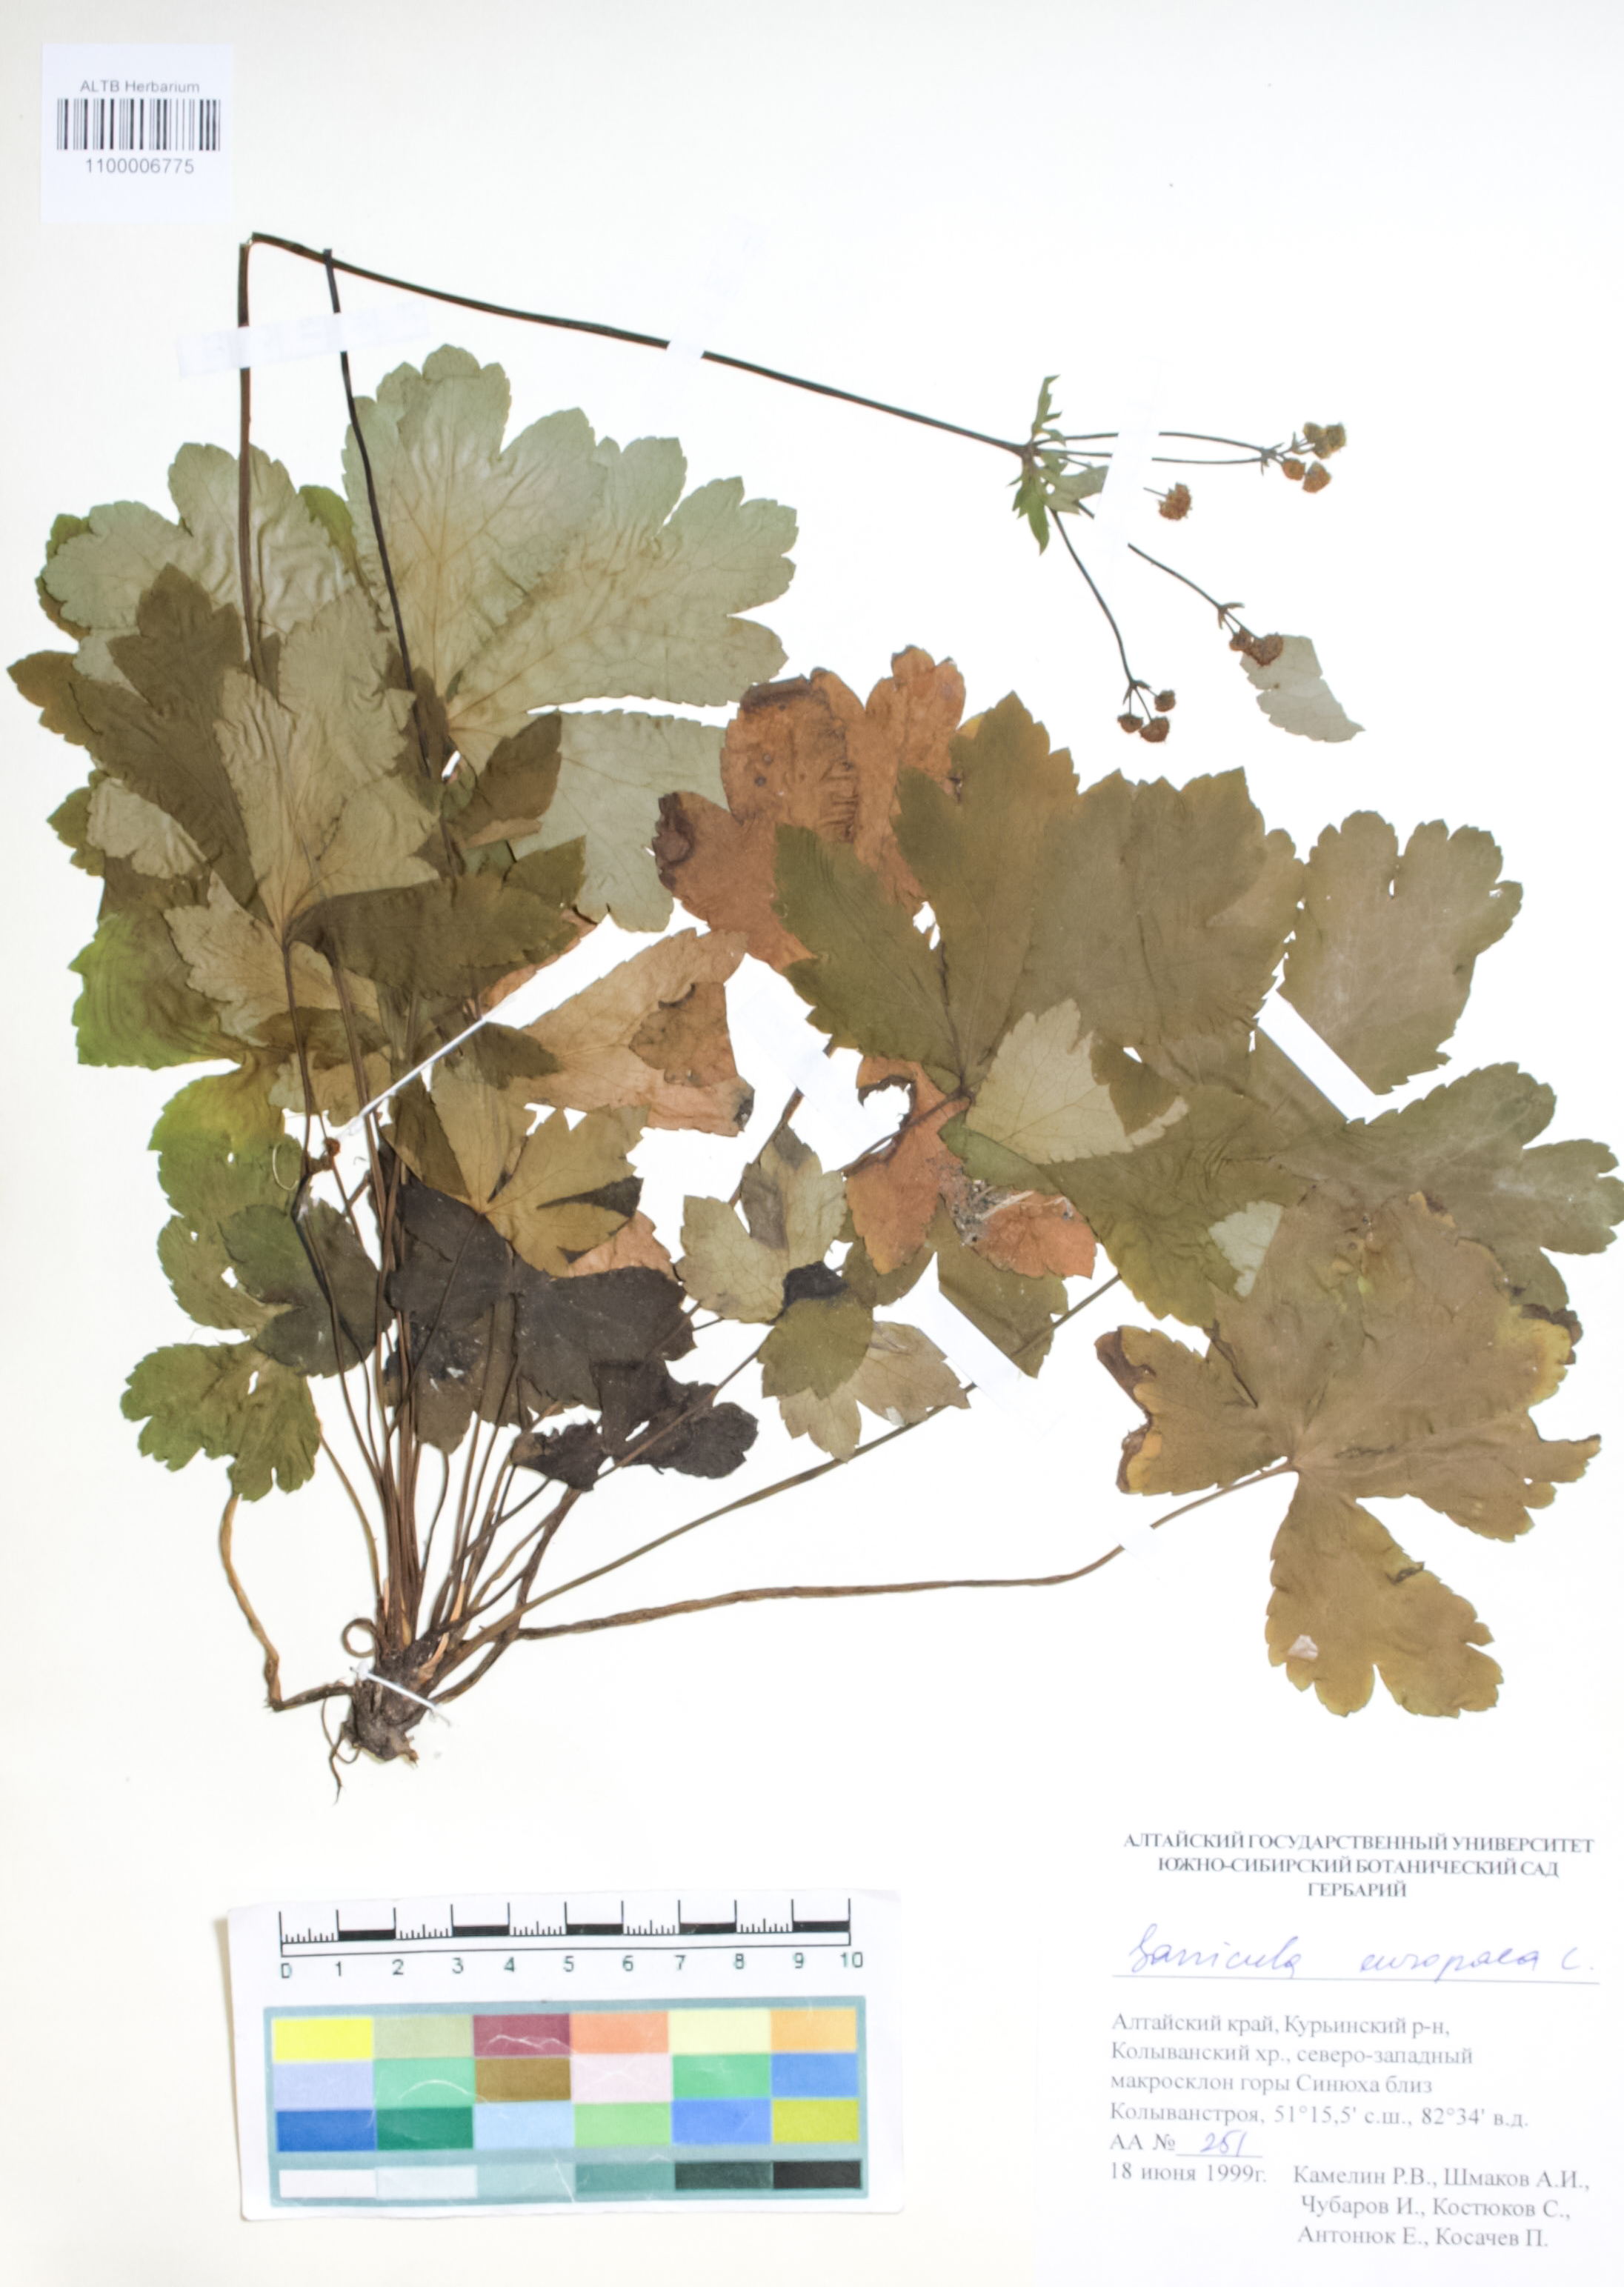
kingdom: Plantae
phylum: Tracheophyta
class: Magnoliopsida
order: Apiales
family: Apiaceae
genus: Sanicula
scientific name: Sanicula europaea
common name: Sanicle
